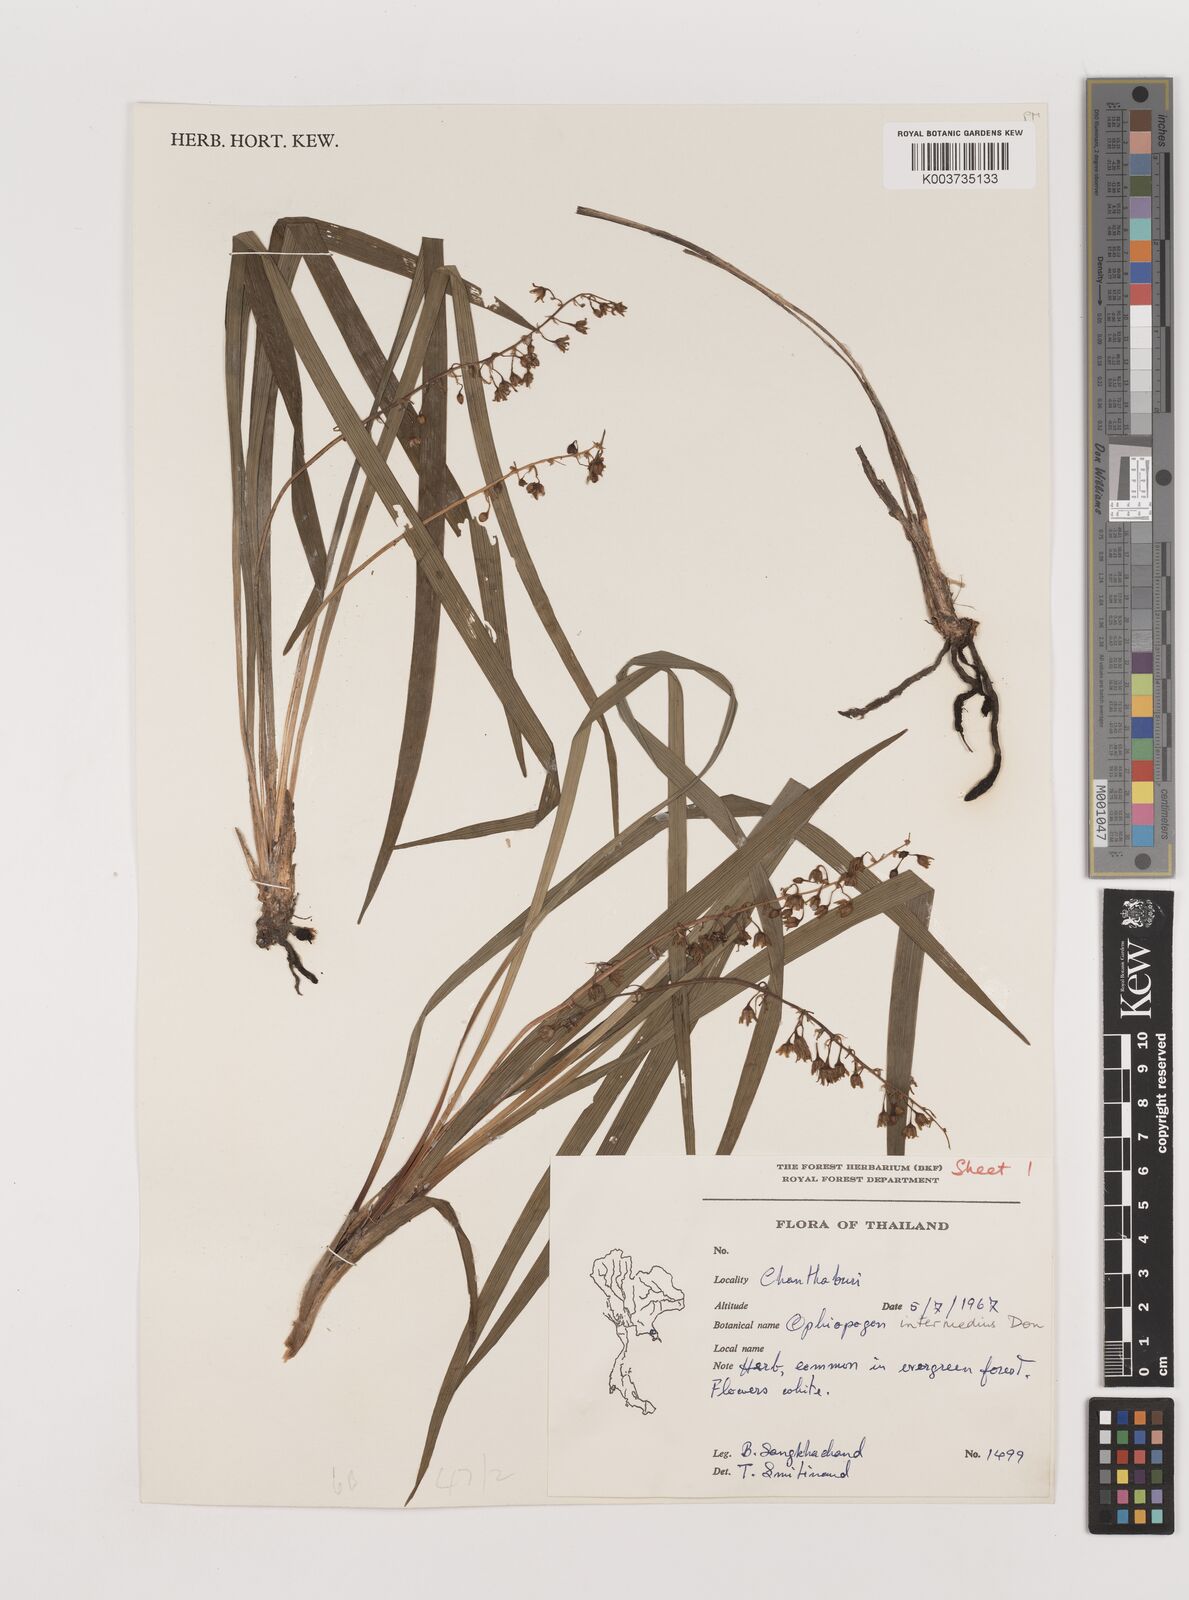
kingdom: Plantae
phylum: Tracheophyta
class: Liliopsida
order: Asparagales
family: Asparagaceae
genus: Ophiopogon
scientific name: Ophiopogon intermedius
